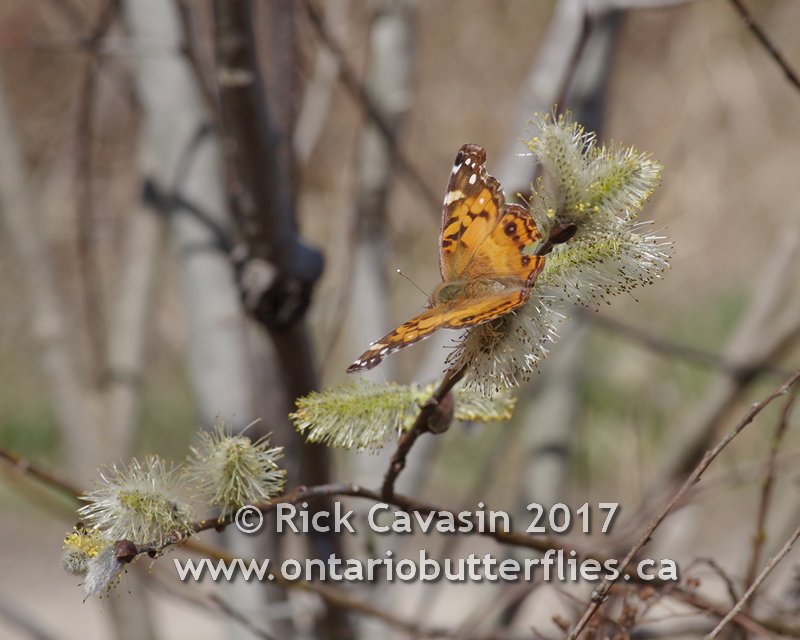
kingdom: Animalia
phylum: Arthropoda
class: Insecta
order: Lepidoptera
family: Nymphalidae
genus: Vanessa
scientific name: Vanessa virginiensis
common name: American Lady
